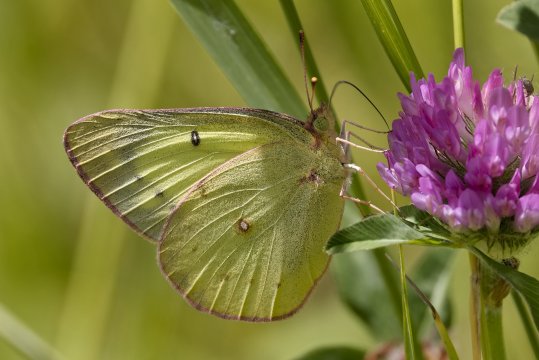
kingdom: Animalia
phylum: Arthropoda
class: Insecta
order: Lepidoptera
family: Pieridae
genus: Colias
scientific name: Colias philodice
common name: Clouded Sulphur
